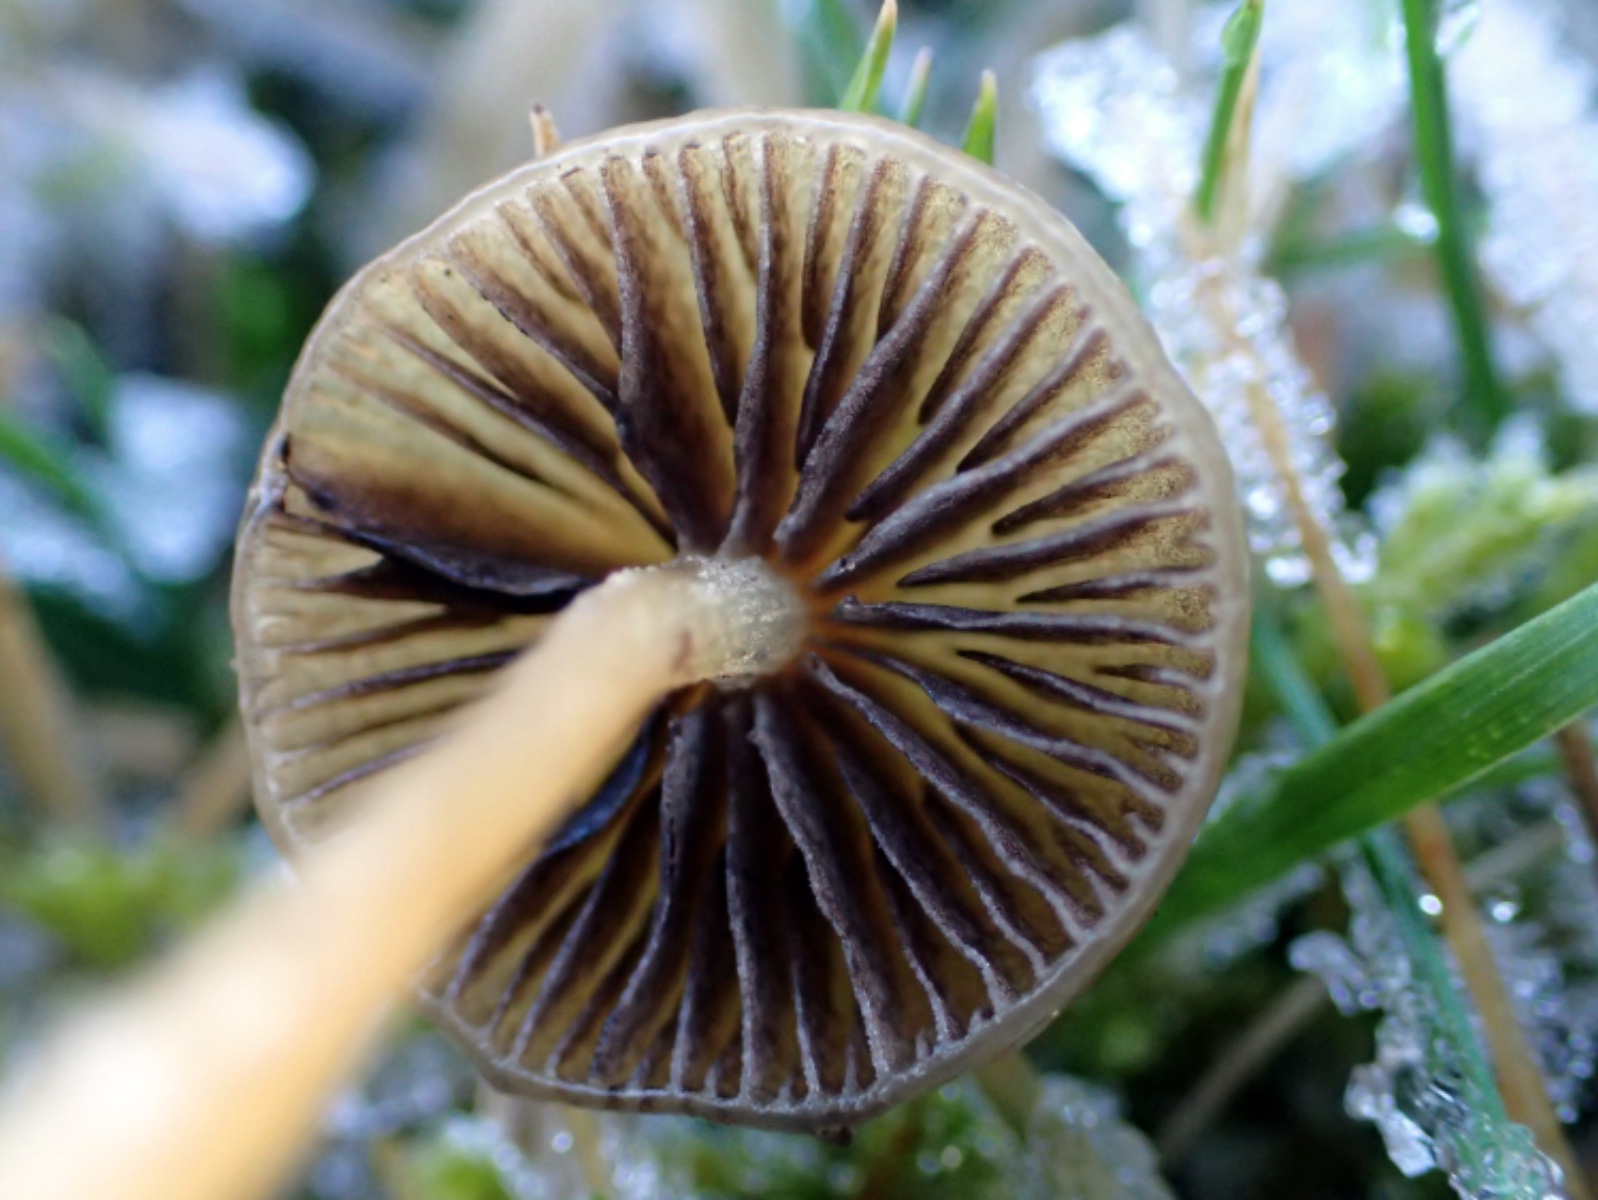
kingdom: Fungi
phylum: Basidiomycota
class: Agaricomycetes
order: Agaricales
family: Mycenaceae
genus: Mycena
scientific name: Mycena
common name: huesvamp
